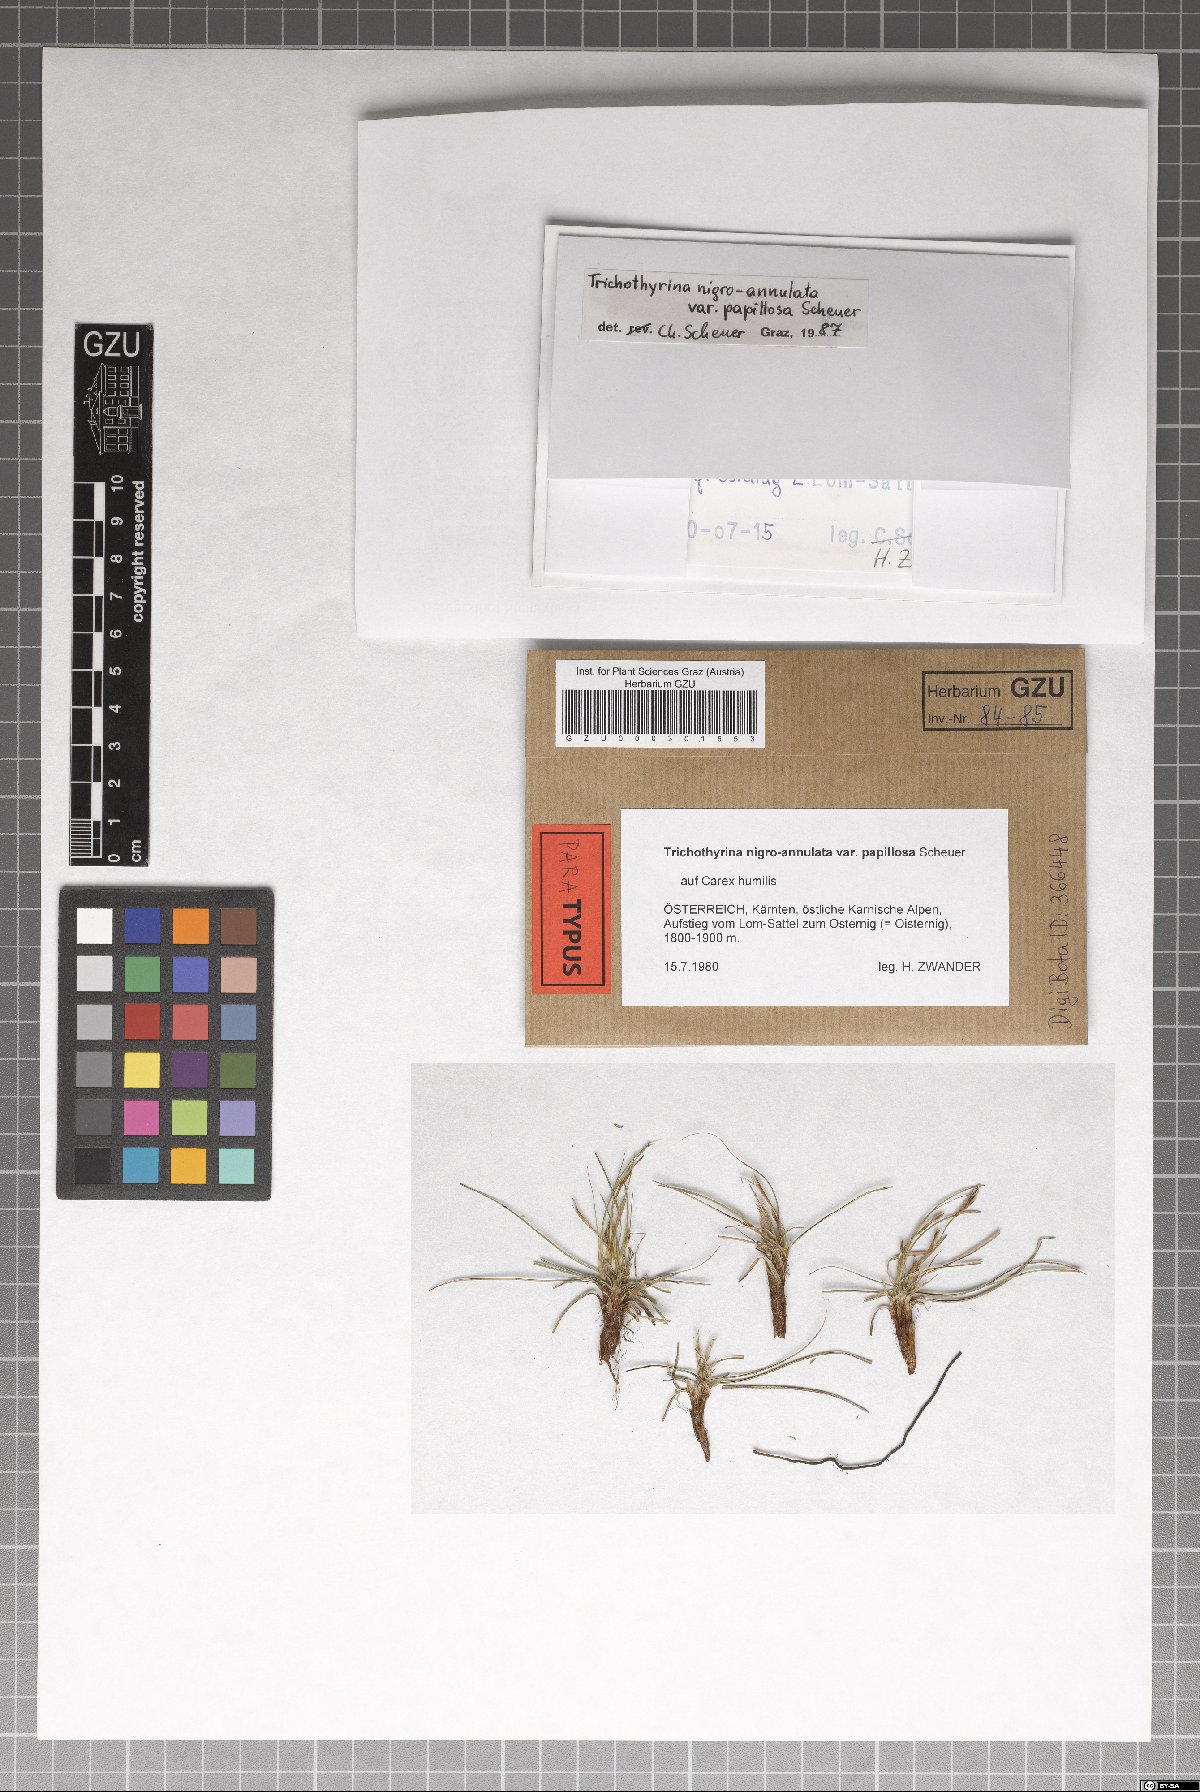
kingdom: Fungi
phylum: Ascomycota
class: Dothideomycetes
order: Microthyriales
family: Microthyriaceae
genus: Lichenopeltella
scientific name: Lichenopeltella nigroannulata
